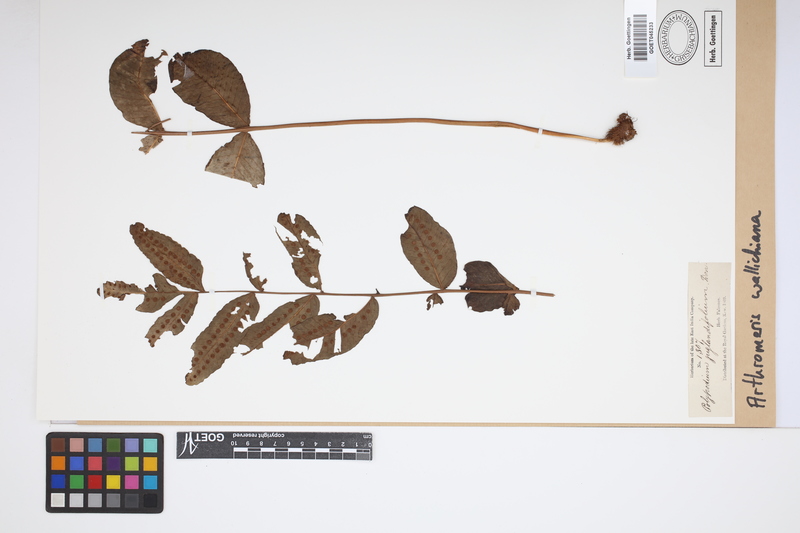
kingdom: Plantae
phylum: Tracheophyta
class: Polypodiopsida
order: Polypodiales
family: Polypodiaceae
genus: Selliguea
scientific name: Selliguea capitellata
